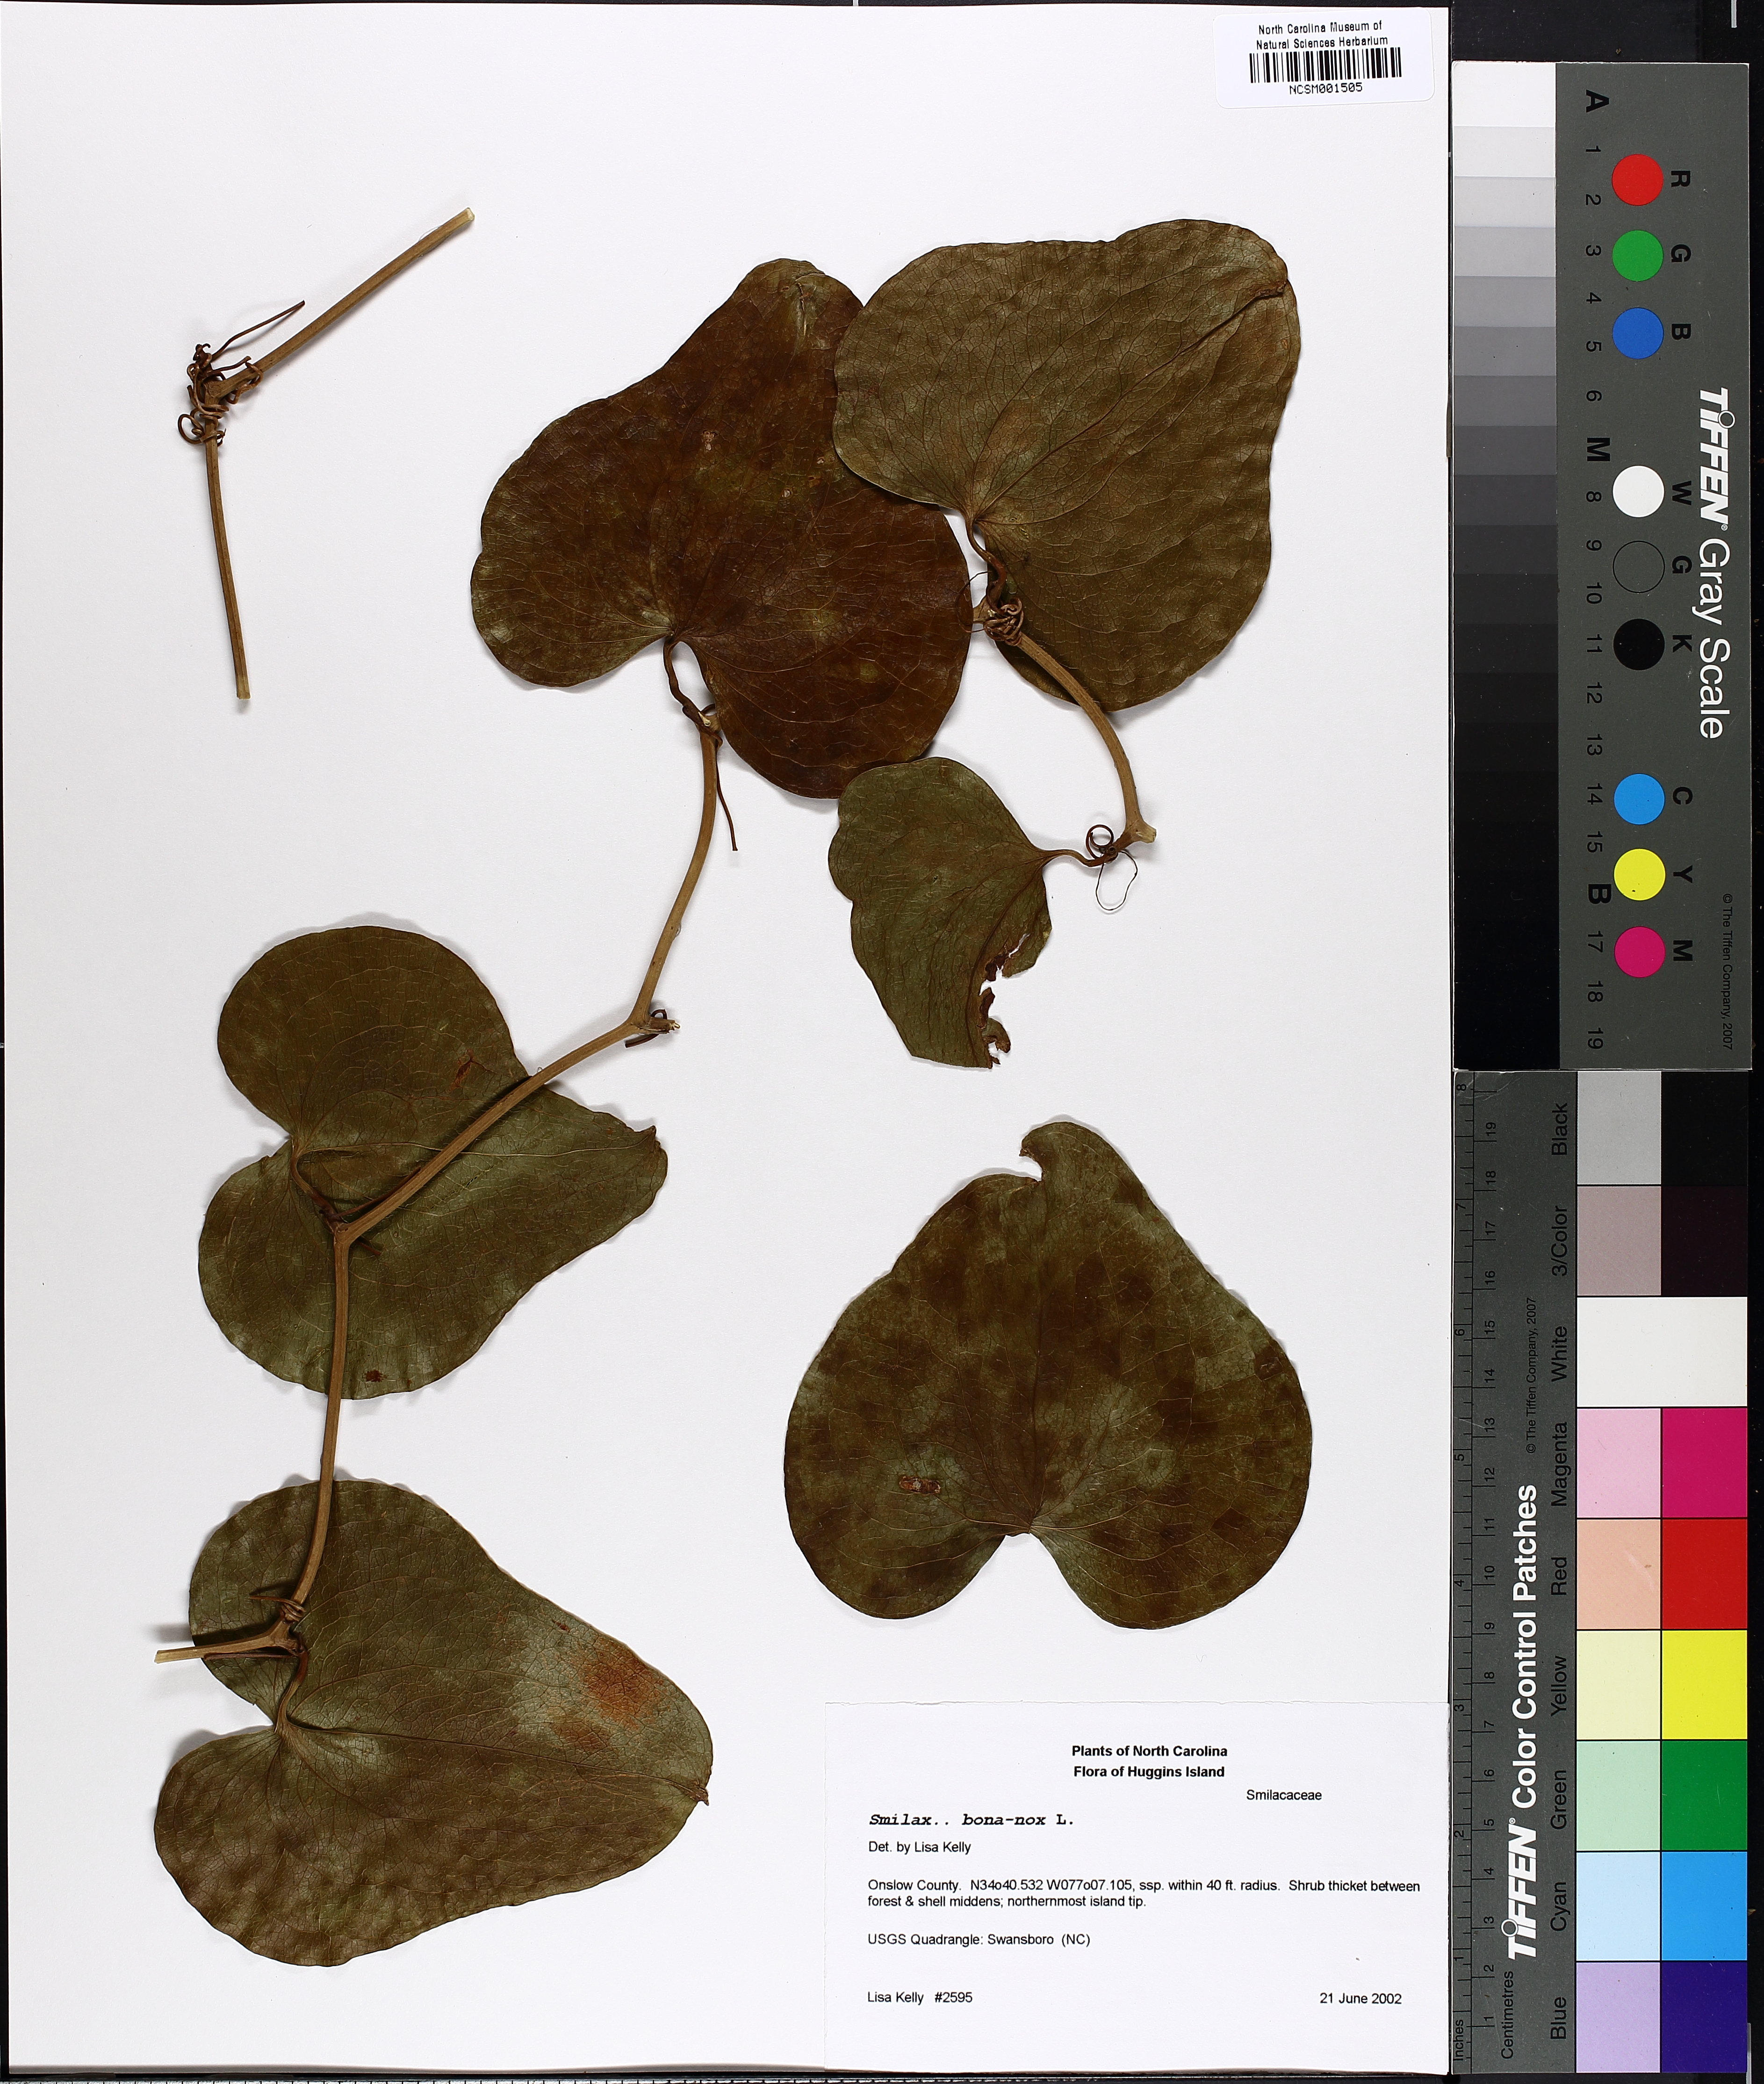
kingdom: Plantae
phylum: Tracheophyta
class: Liliopsida
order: Liliales
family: Smilacaceae
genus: Smilax
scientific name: Smilax bona-nox
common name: Catbrier
